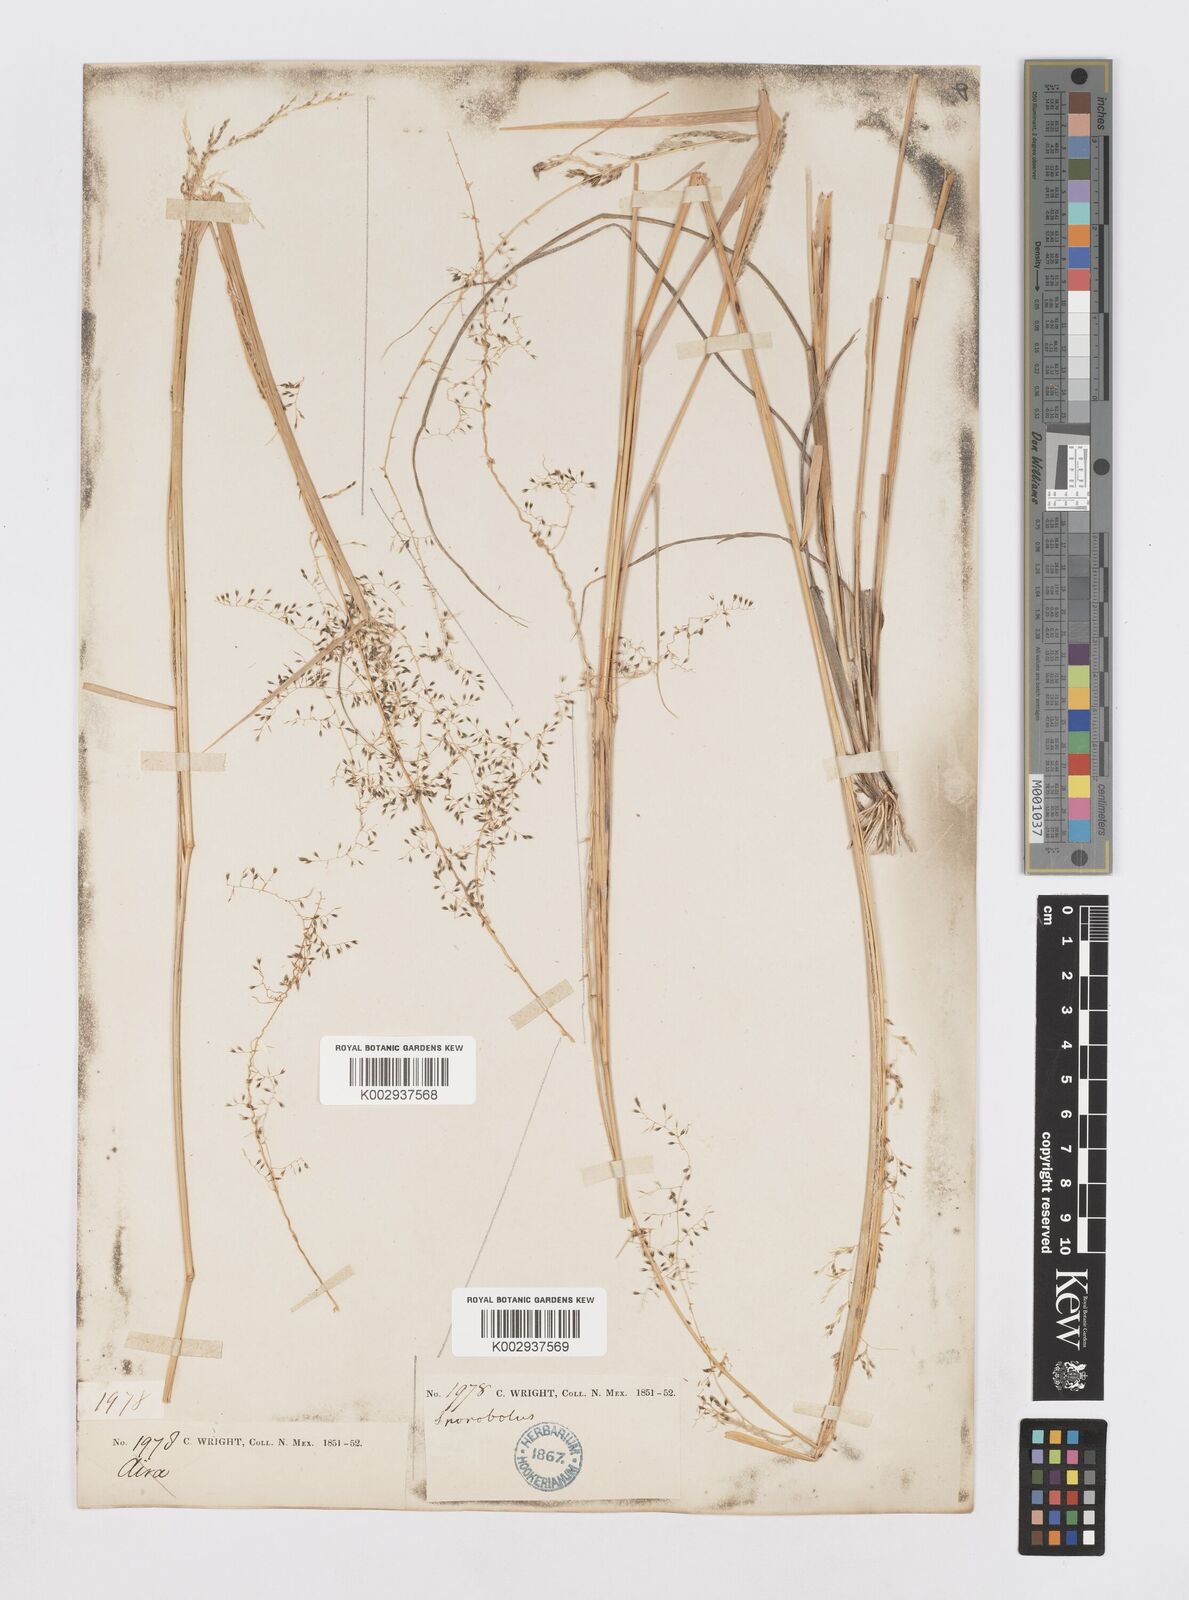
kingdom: Plantae
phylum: Tracheophyta
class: Liliopsida
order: Poales
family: Poaceae
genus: Sporobolus
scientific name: Sporobolus
